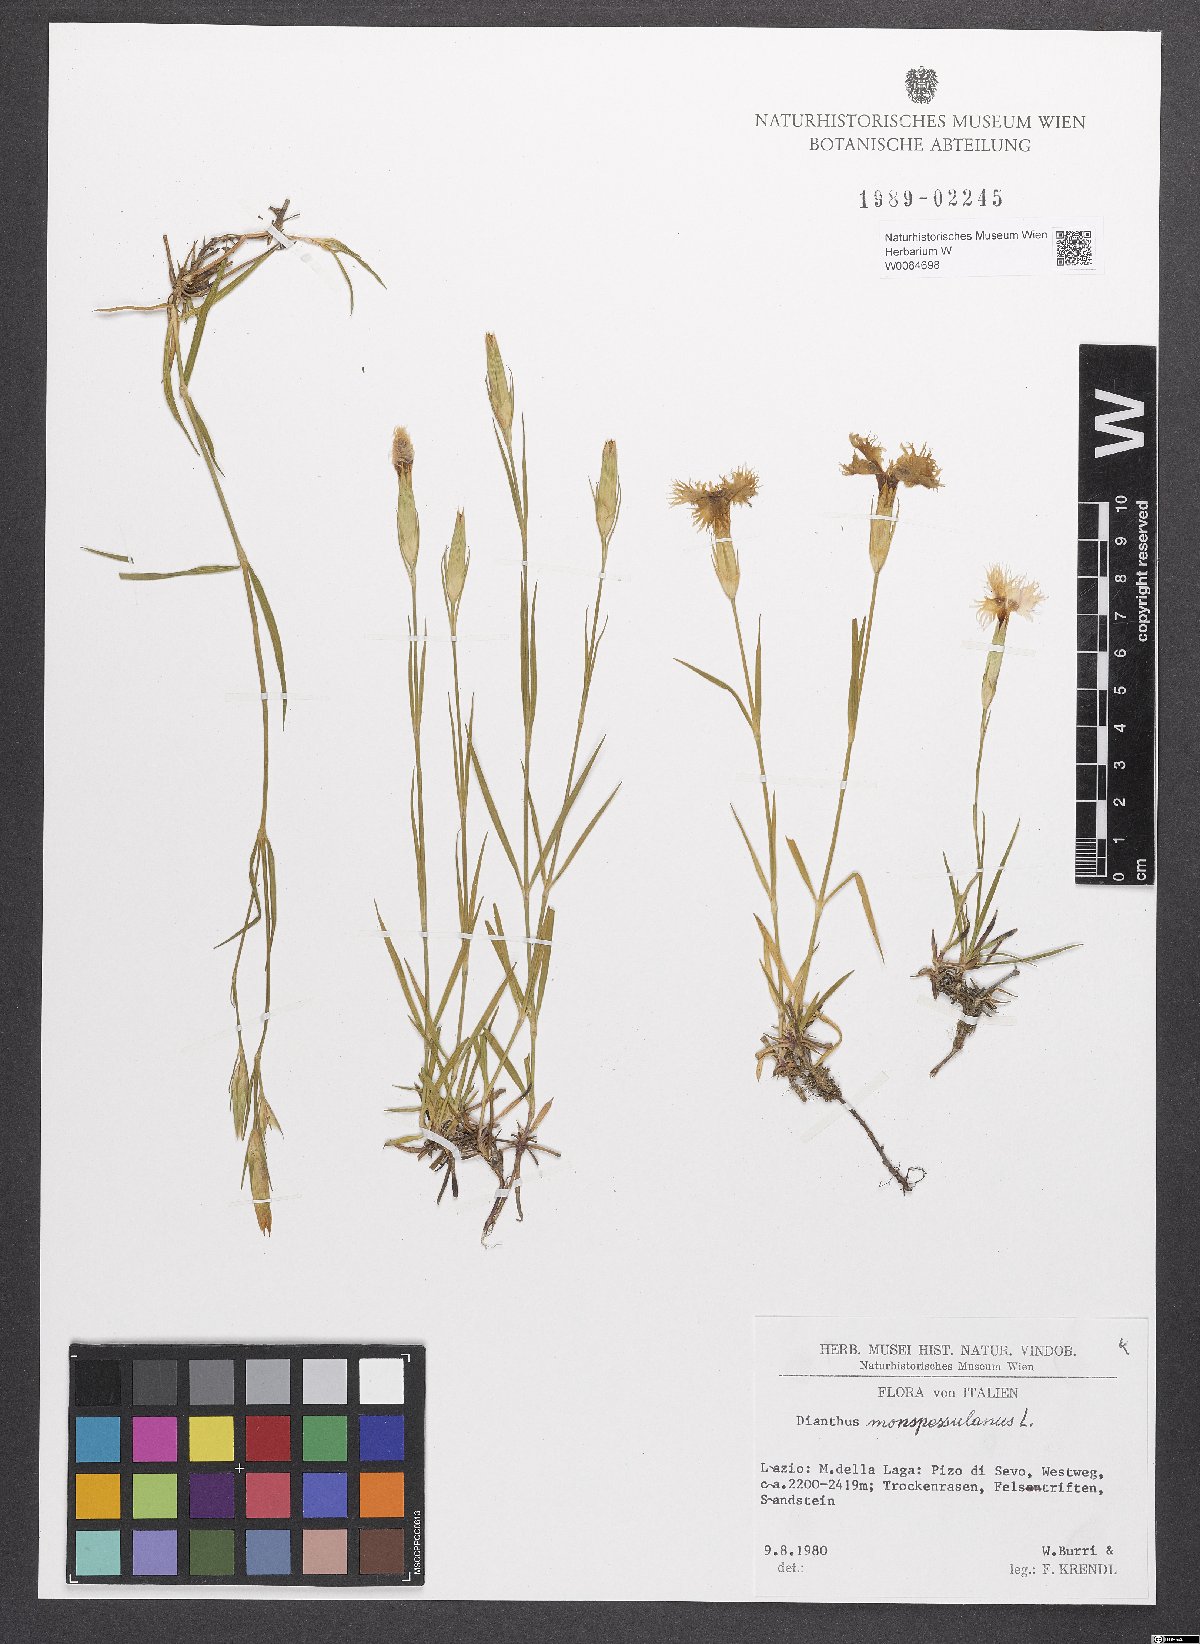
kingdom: Plantae
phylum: Tracheophyta
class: Magnoliopsida
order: Caryophyllales
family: Caryophyllaceae
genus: Dianthus
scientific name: Dianthus hyssopifolius
